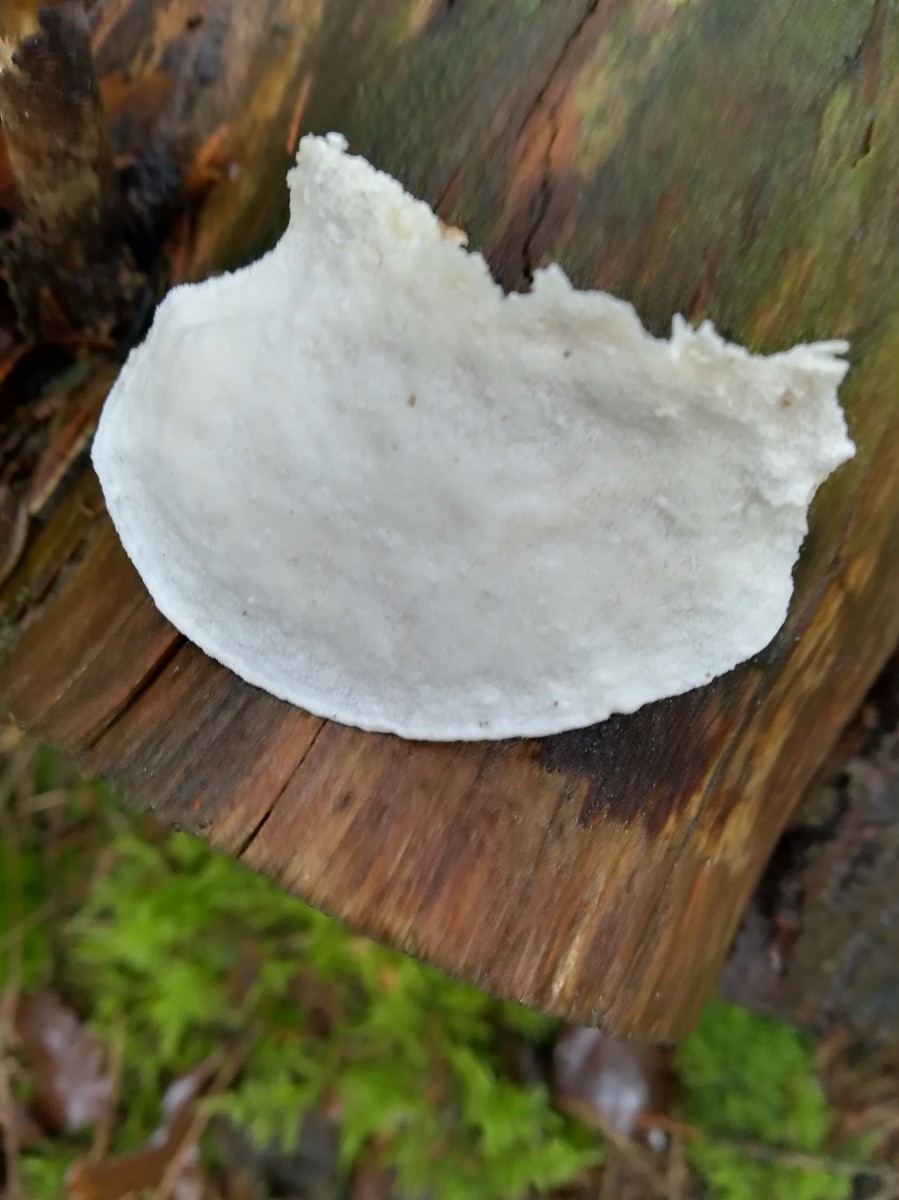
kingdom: Fungi
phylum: Basidiomycota
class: Agaricomycetes
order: Polyporales
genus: Amaropostia
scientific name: Amaropostia stiptica
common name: bitter kødporesvamp
